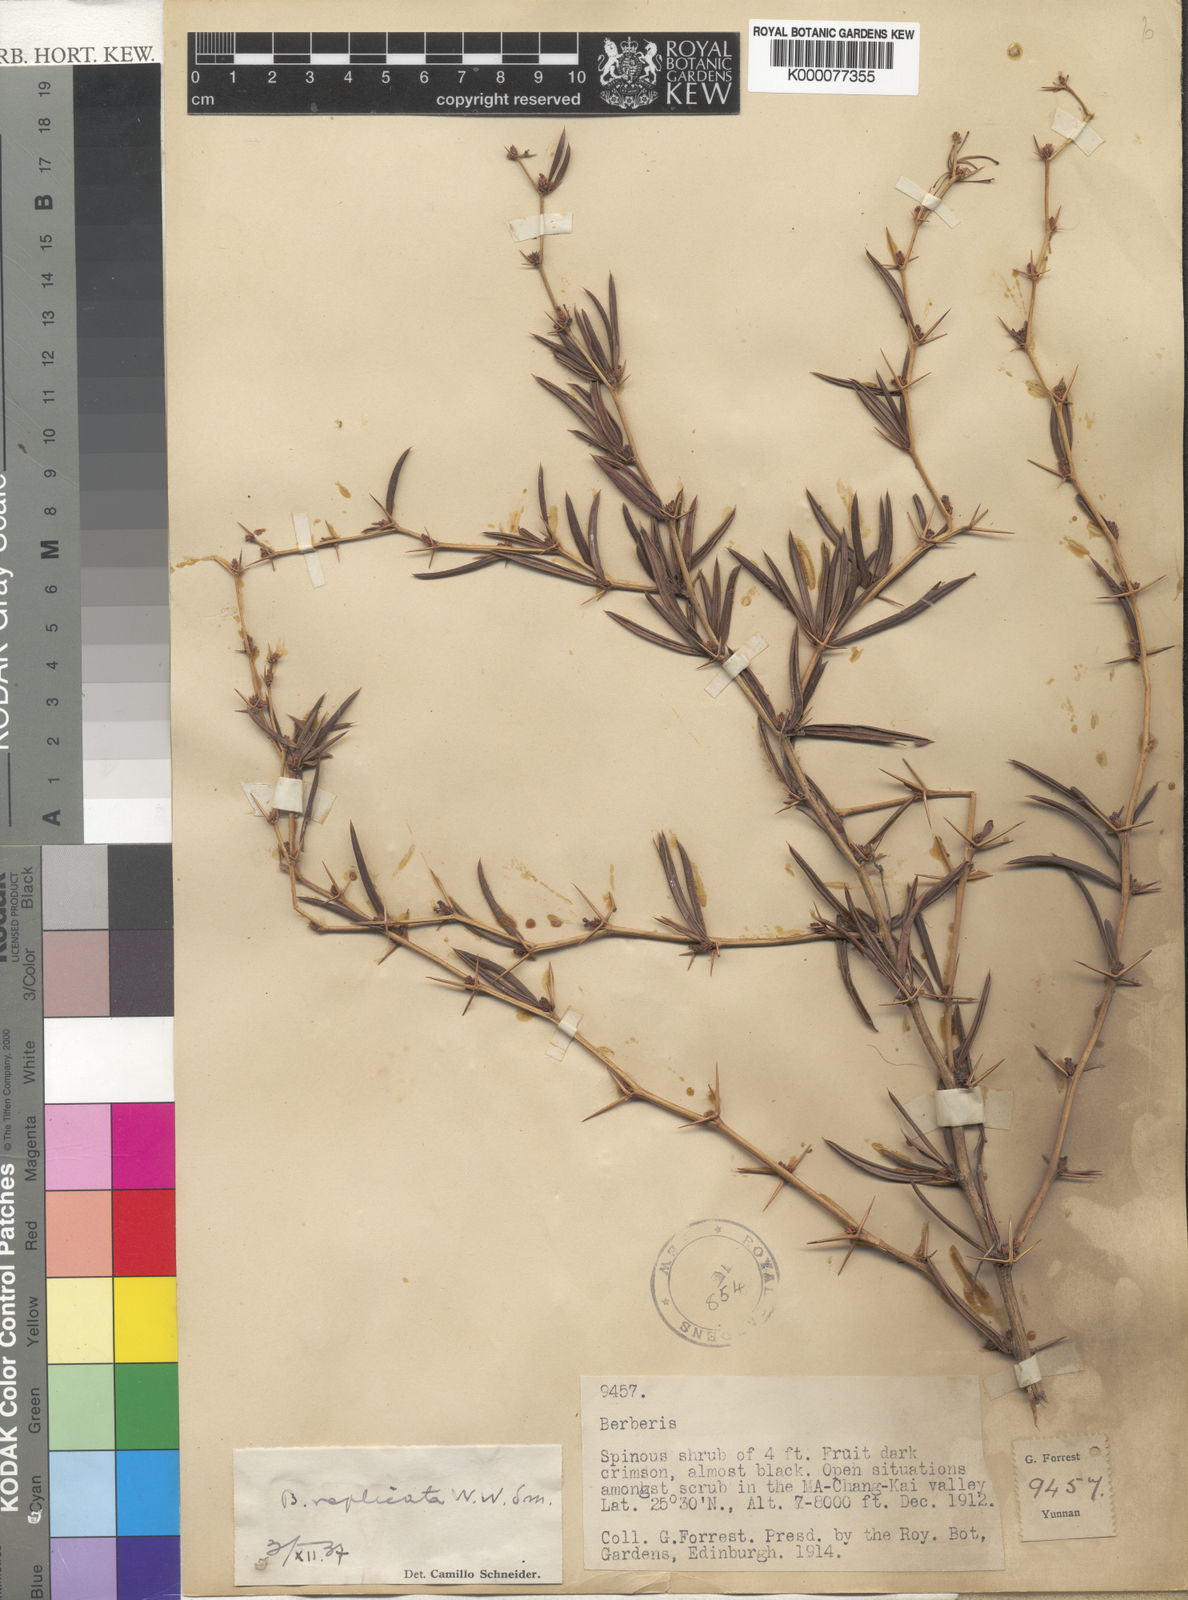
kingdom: Plantae
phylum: Tracheophyta
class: Magnoliopsida
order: Ranunculales
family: Berberidaceae
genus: Berberis
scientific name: Berberis replicata
